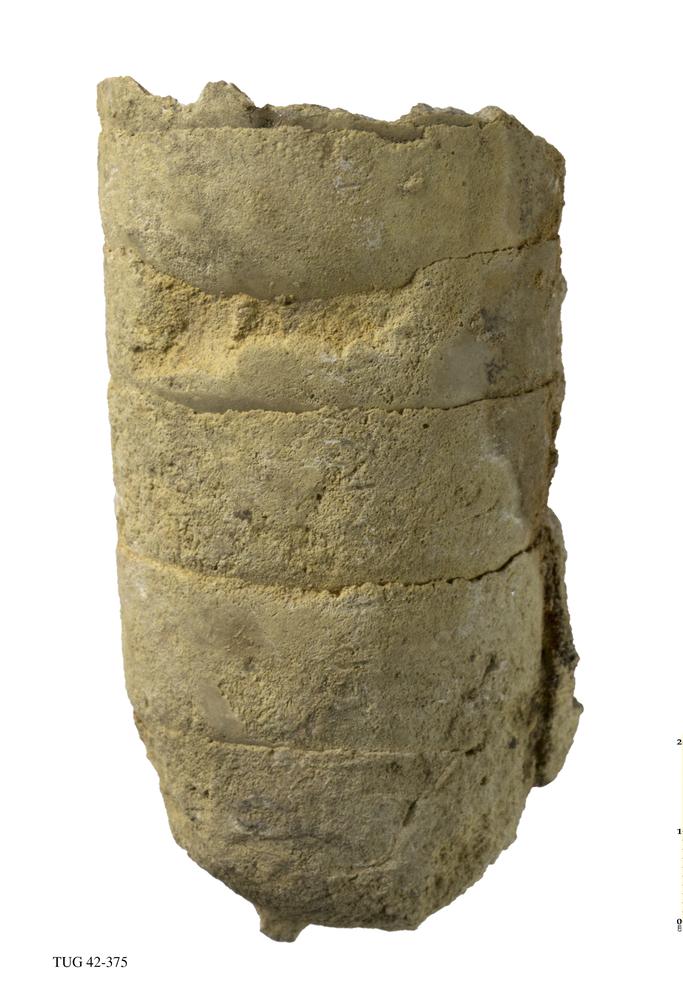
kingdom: Animalia
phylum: Mollusca
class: Cephalopoda
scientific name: Cephalopoda
